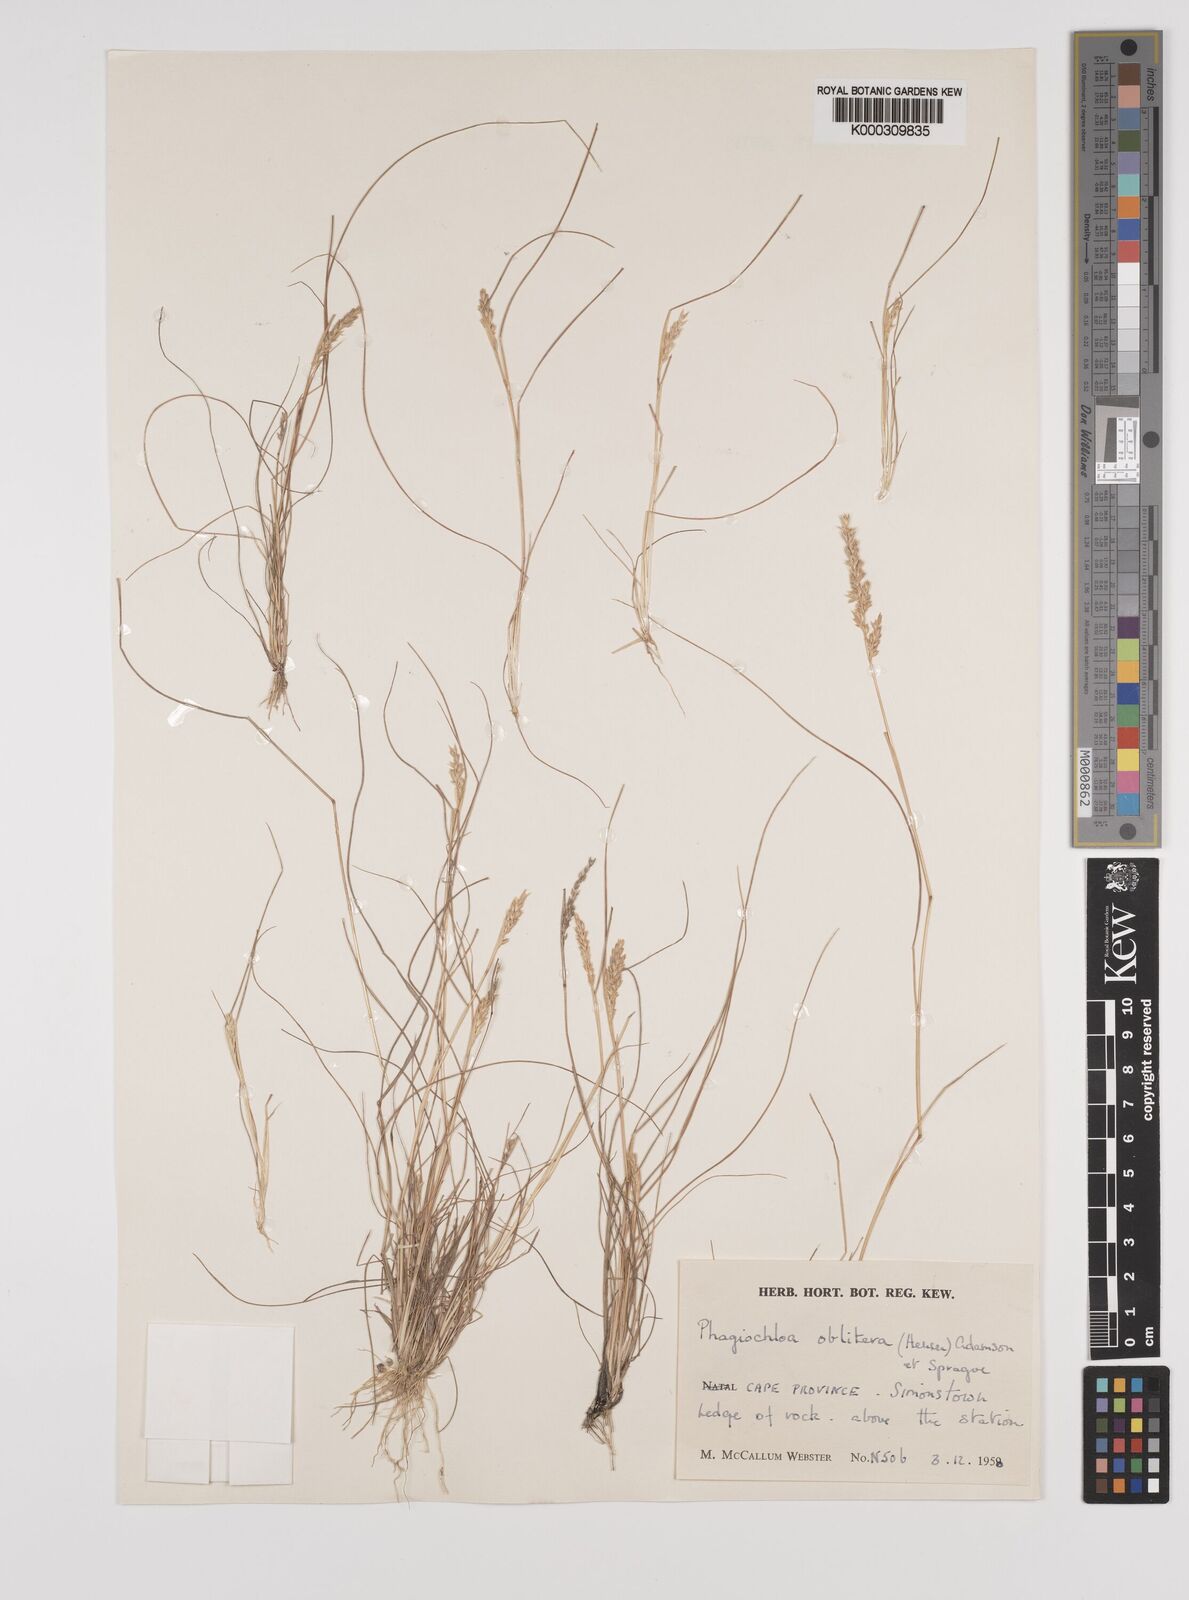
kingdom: Plantae
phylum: Tracheophyta
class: Liliopsida
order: Poales
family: Poaceae
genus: Tribolium
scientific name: Tribolium acutiflorum
